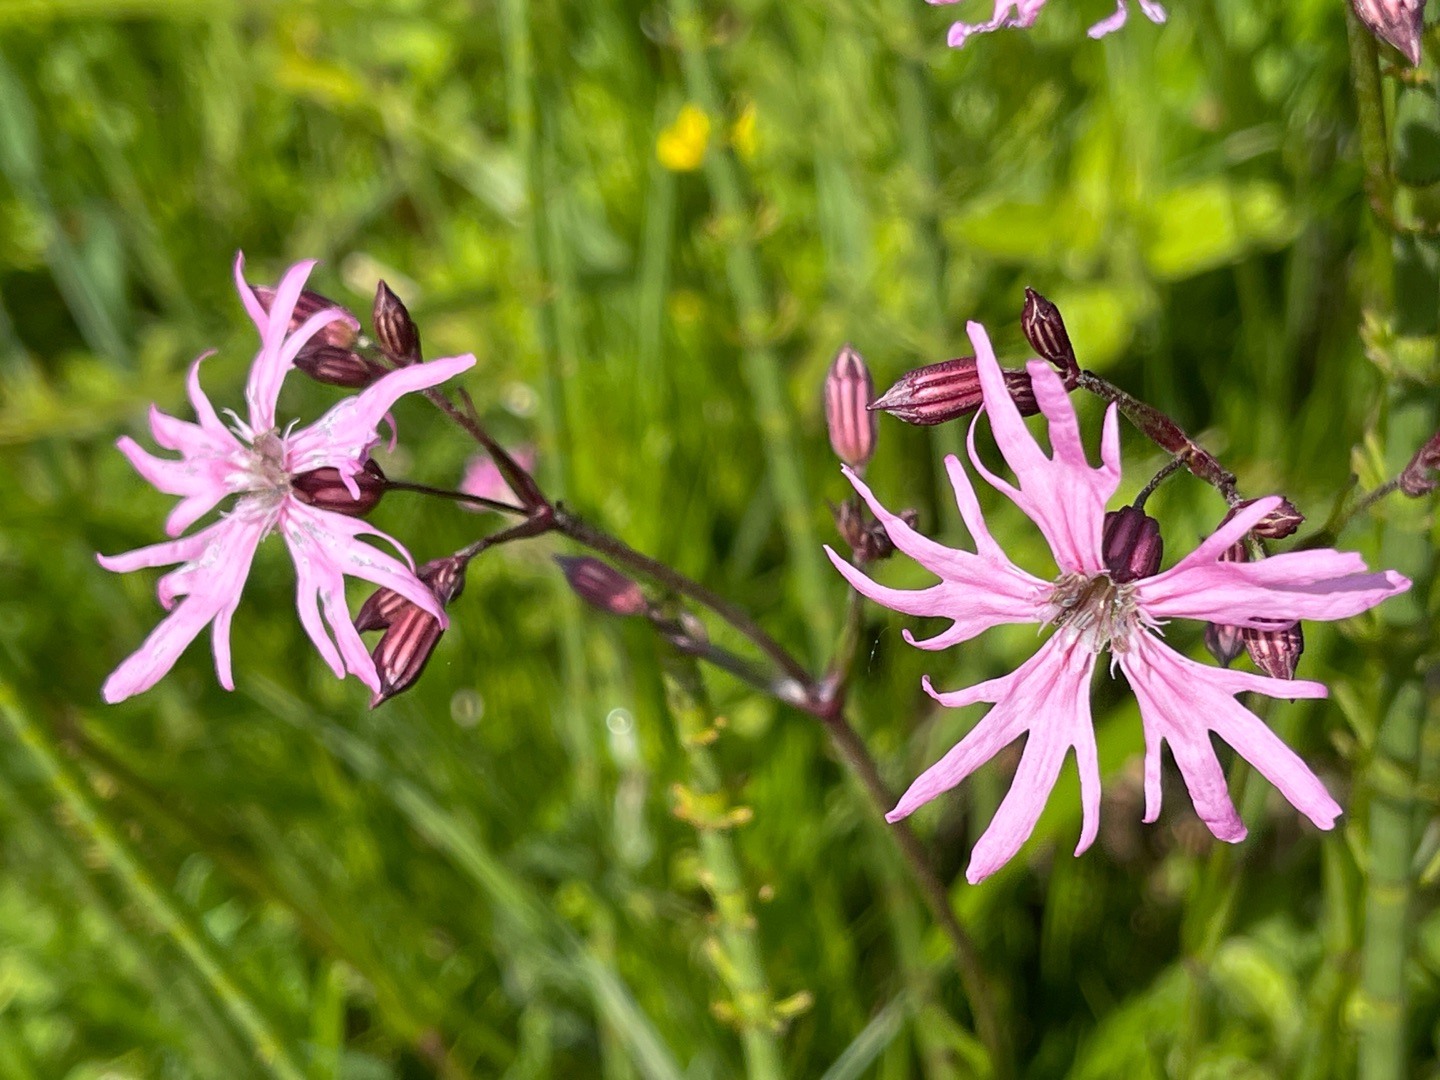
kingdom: Plantae
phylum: Tracheophyta
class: Magnoliopsida
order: Caryophyllales
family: Caryophyllaceae
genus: Silene
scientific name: Silene flos-cuculi
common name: Trævlekrone
